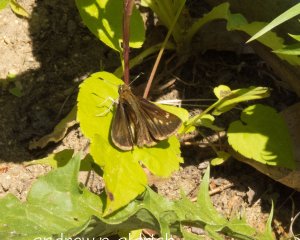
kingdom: Animalia
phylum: Arthropoda
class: Insecta
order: Lepidoptera
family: Hesperiidae
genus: Lon
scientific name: Lon hobomok
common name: Hobomok Skipper
